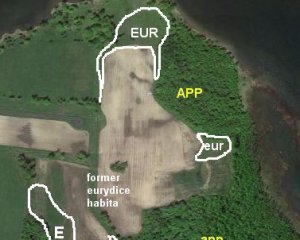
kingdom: Animalia
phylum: Arthropoda
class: Insecta
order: Lepidoptera
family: Nymphalidae
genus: Lethe
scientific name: Lethe eurydice
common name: Eyed Brown
